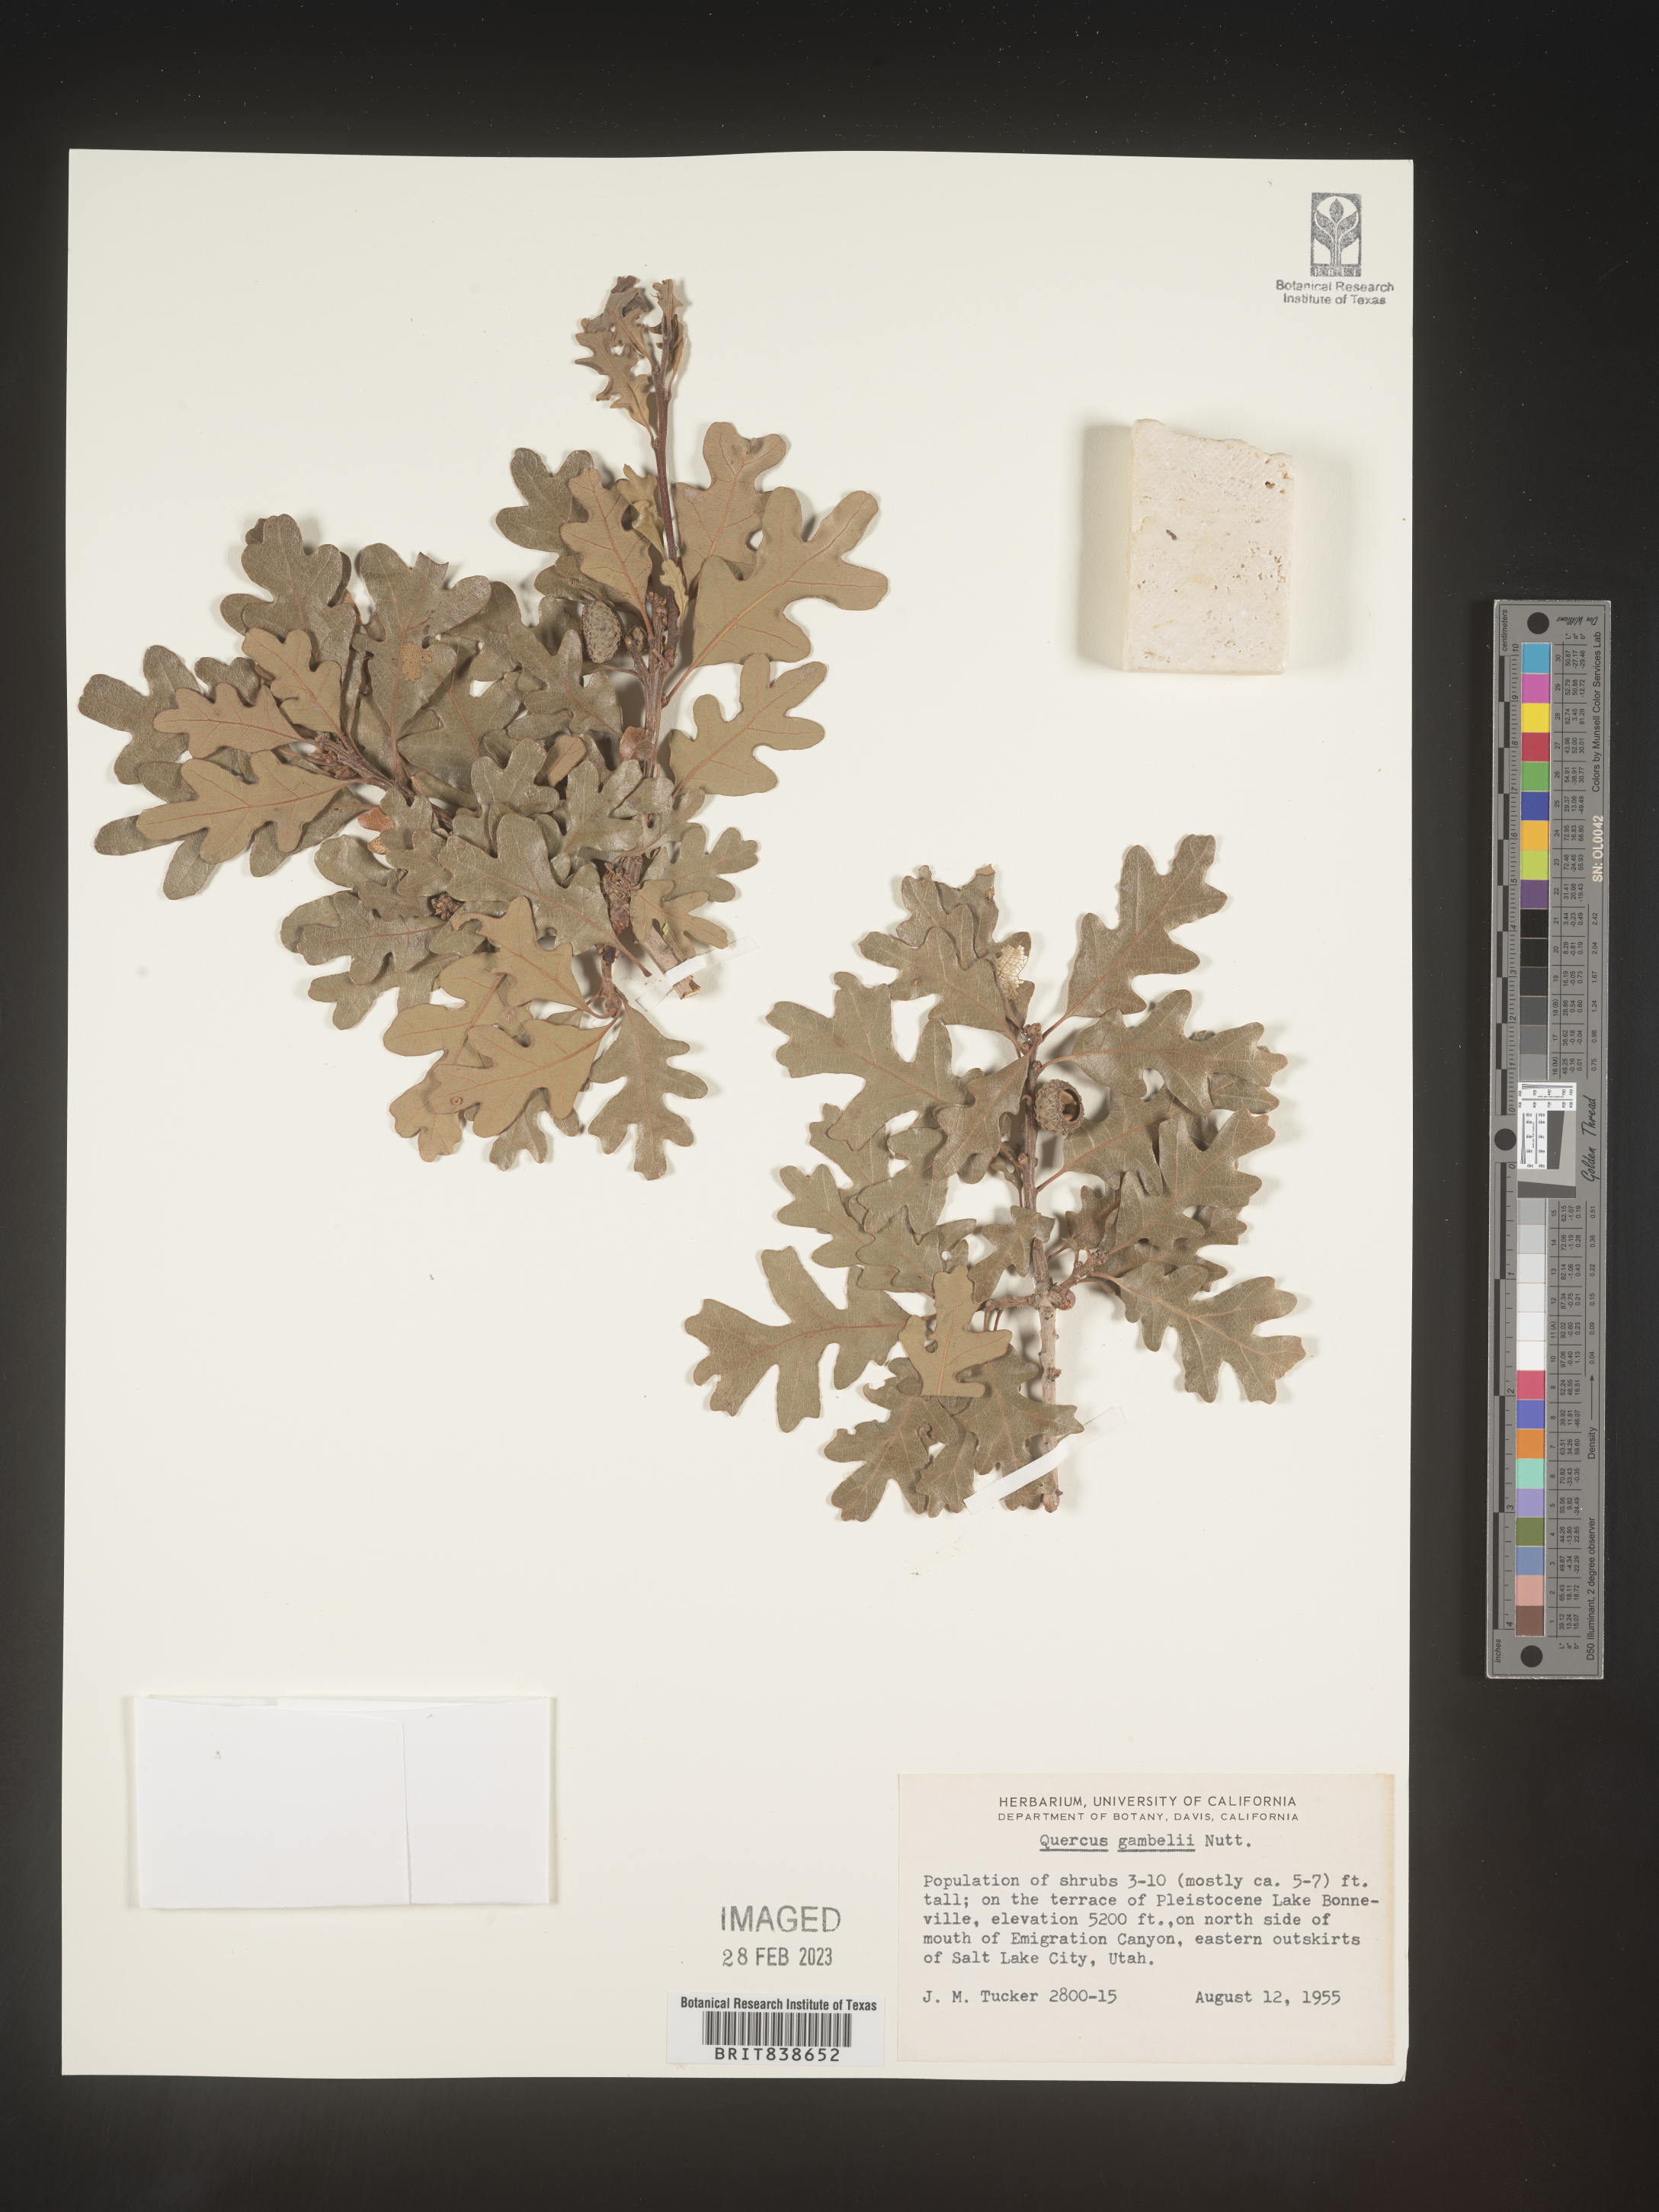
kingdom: Plantae
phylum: Tracheophyta
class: Magnoliopsida
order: Fagales
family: Fagaceae
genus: Quercus
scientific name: Quercus gambelii
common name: Gambel oak
